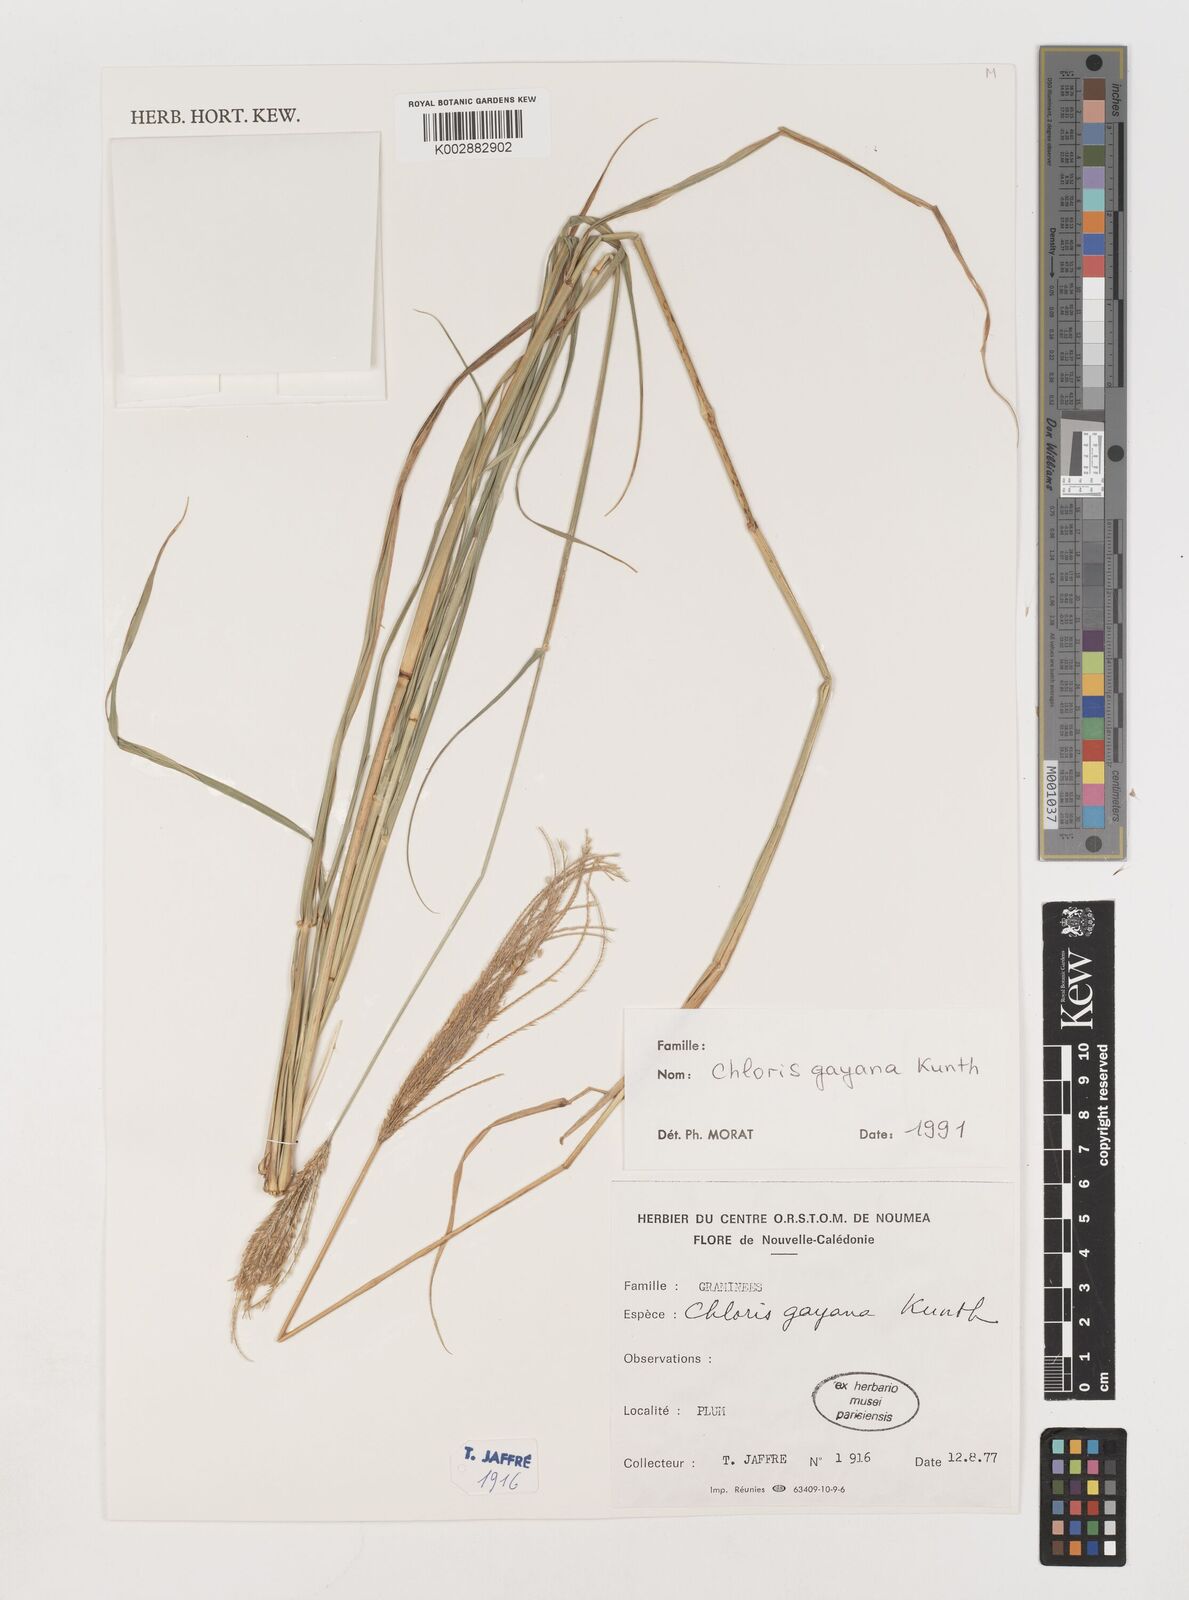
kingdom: Plantae
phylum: Tracheophyta
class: Liliopsida
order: Poales
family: Poaceae
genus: Chloris
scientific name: Chloris gayana
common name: Rhodes grass
